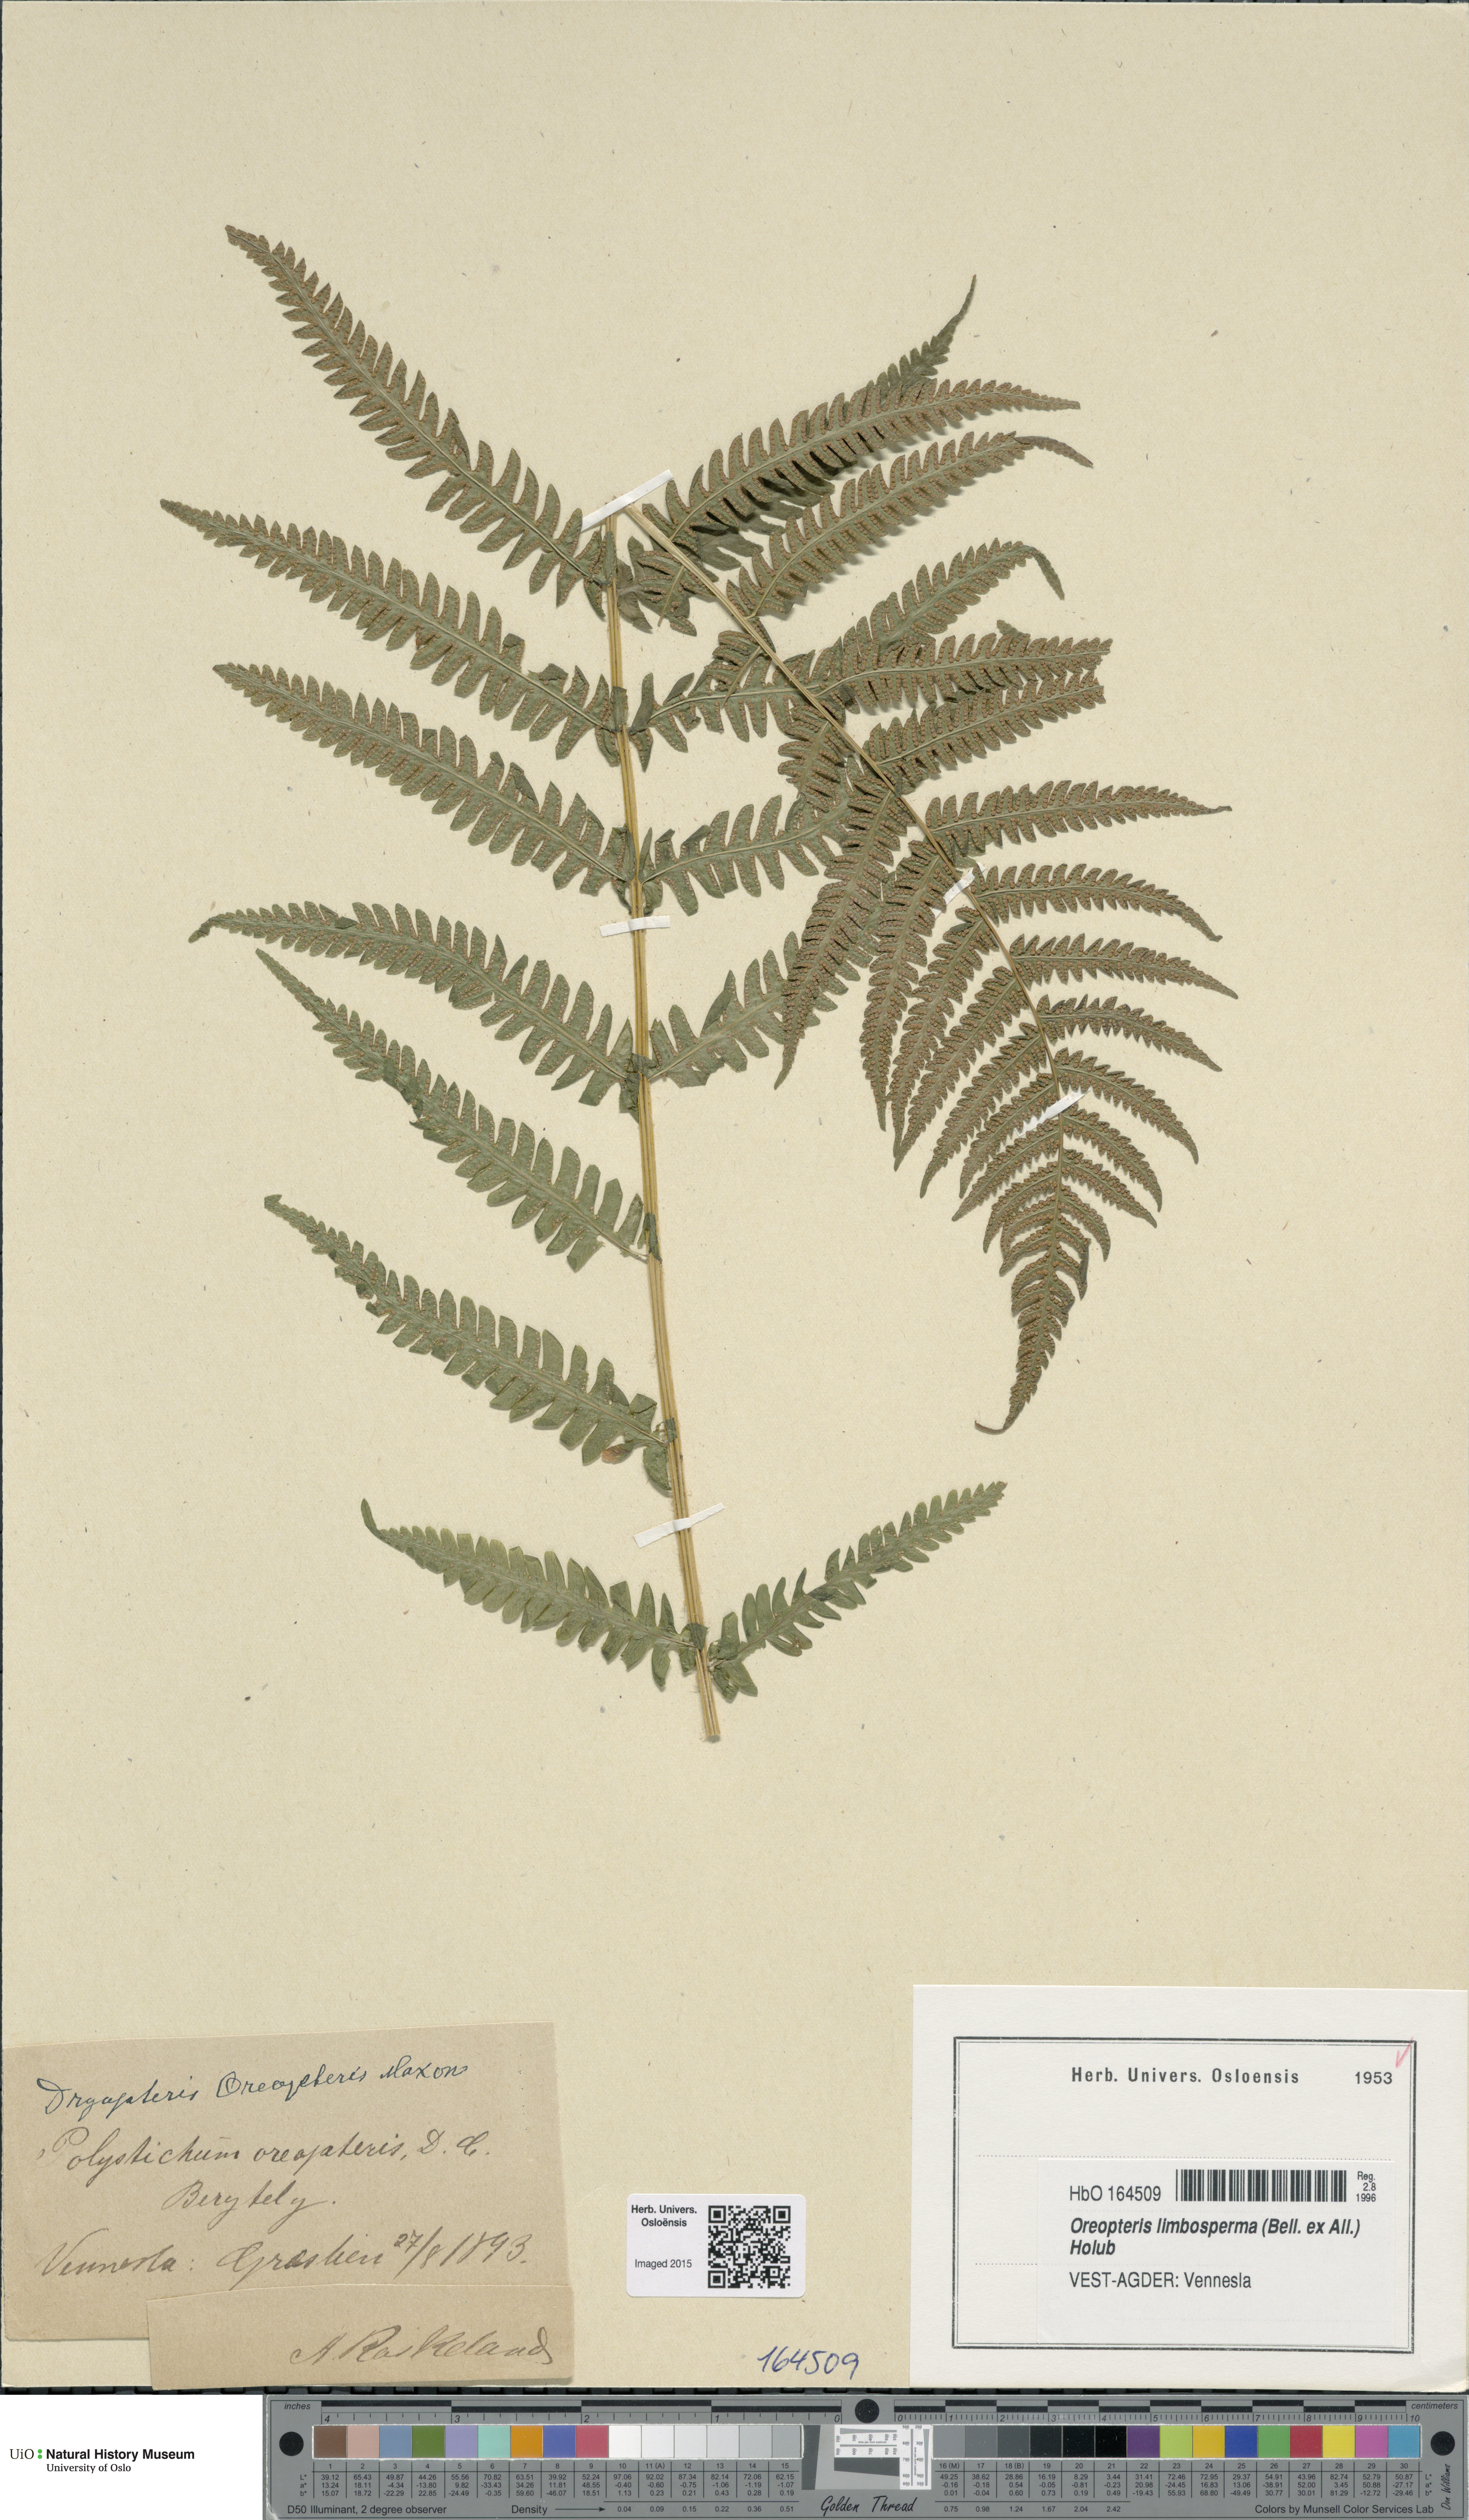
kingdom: Plantae
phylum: Tracheophyta
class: Polypodiopsida
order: Polypodiales
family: Thelypteridaceae
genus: Oreopteris
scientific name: Oreopteris limbosperma
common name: Lemon-scented fern
